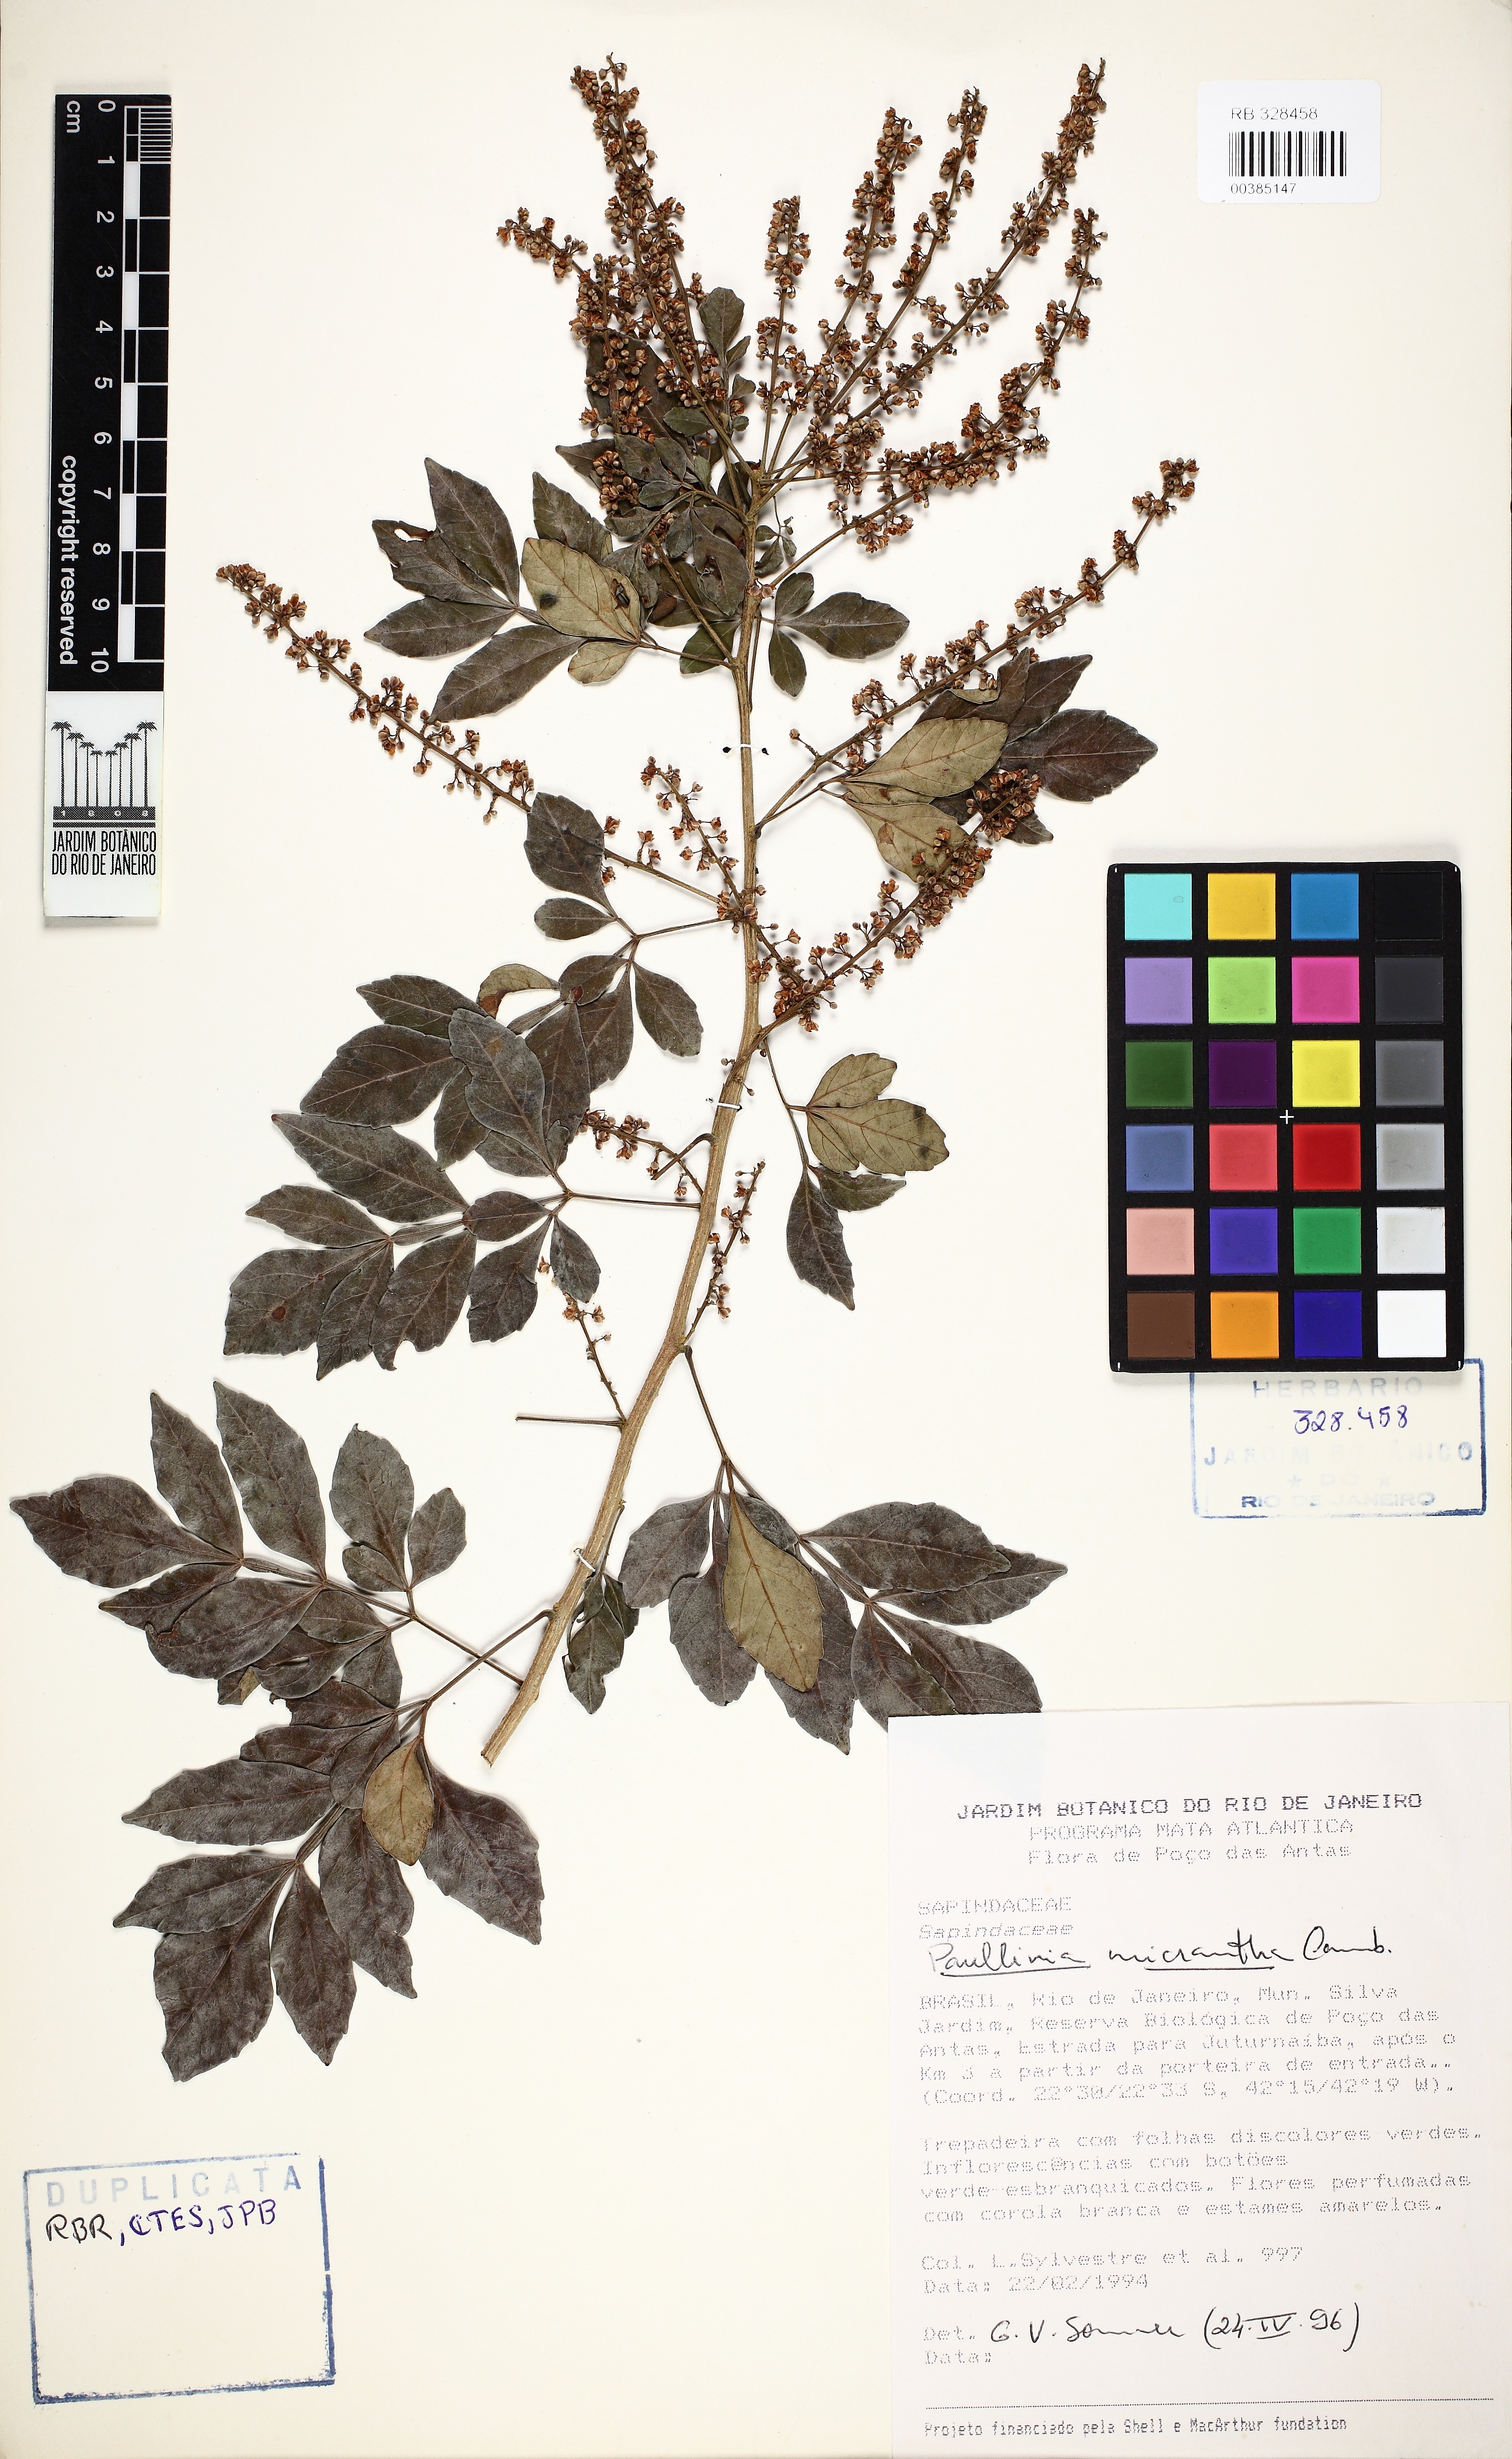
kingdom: Plantae
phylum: Tracheophyta
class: Magnoliopsida
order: Sapindales
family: Sapindaceae
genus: Paullinia
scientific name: Paullinia micrantha
